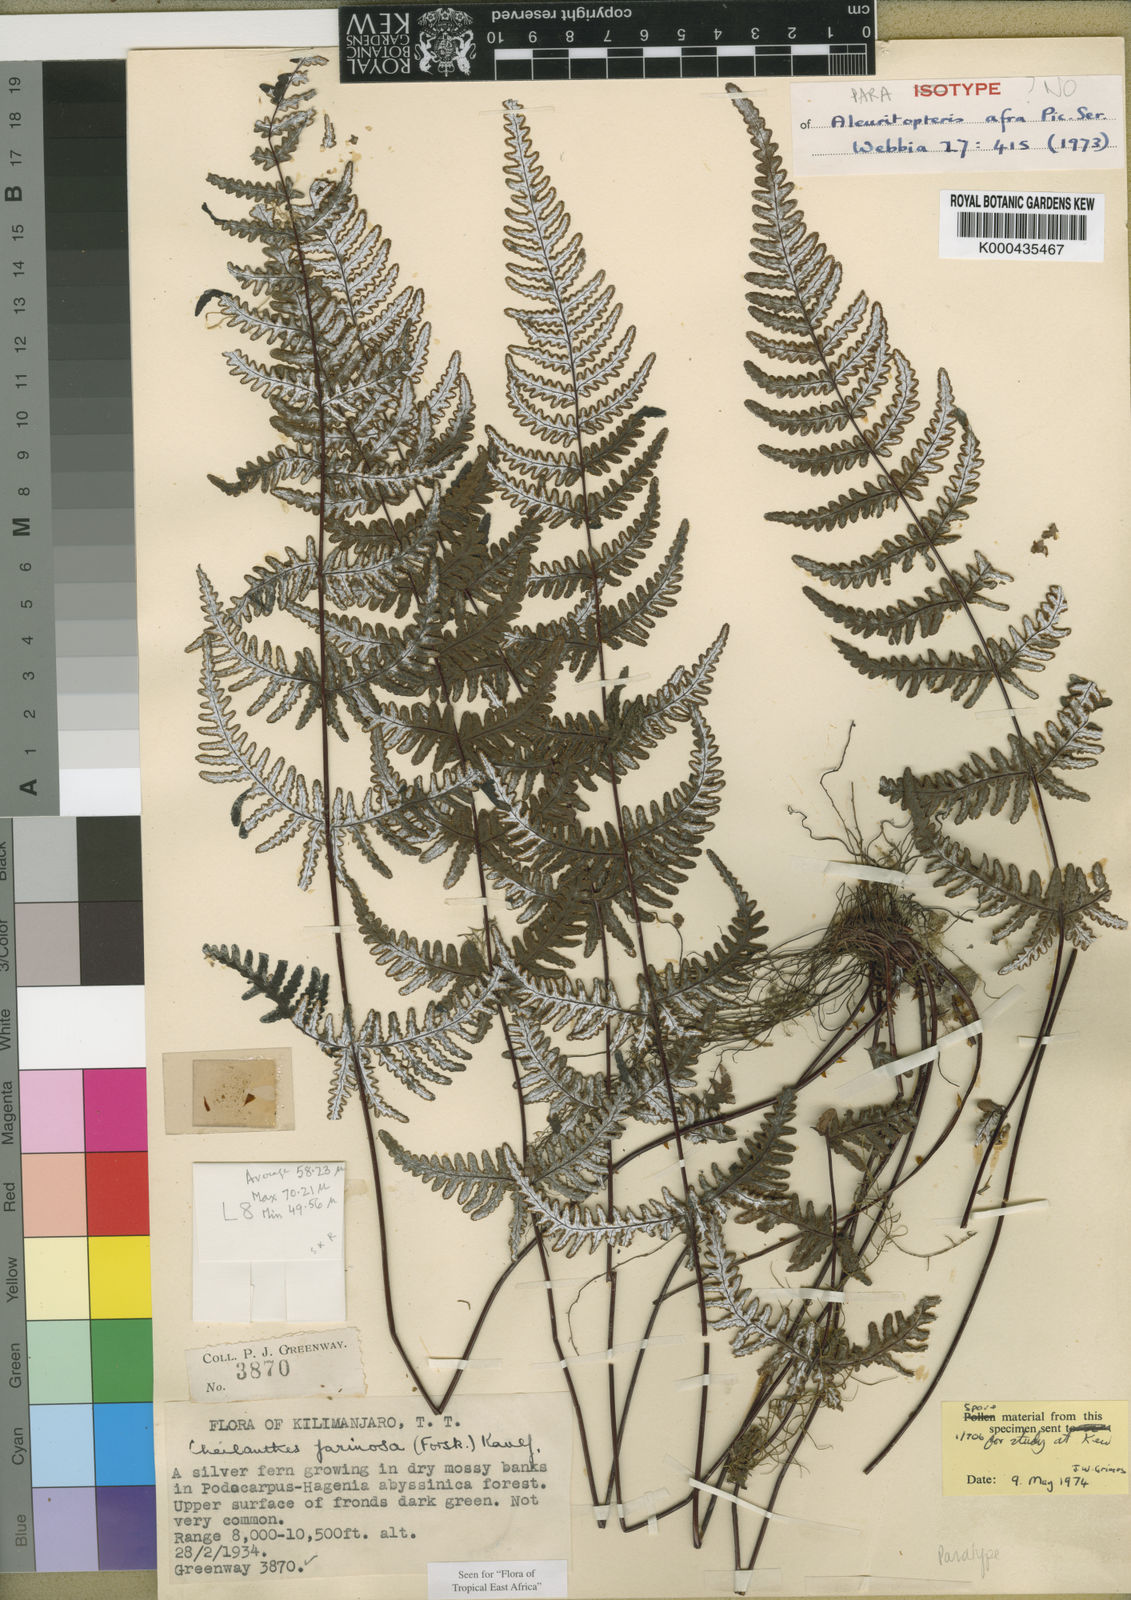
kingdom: Plantae
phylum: Tracheophyta
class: Polypodiopsida
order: Polypodiales
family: Pteridaceae
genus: Aleuritopteris
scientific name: Aleuritopteris farinosa
